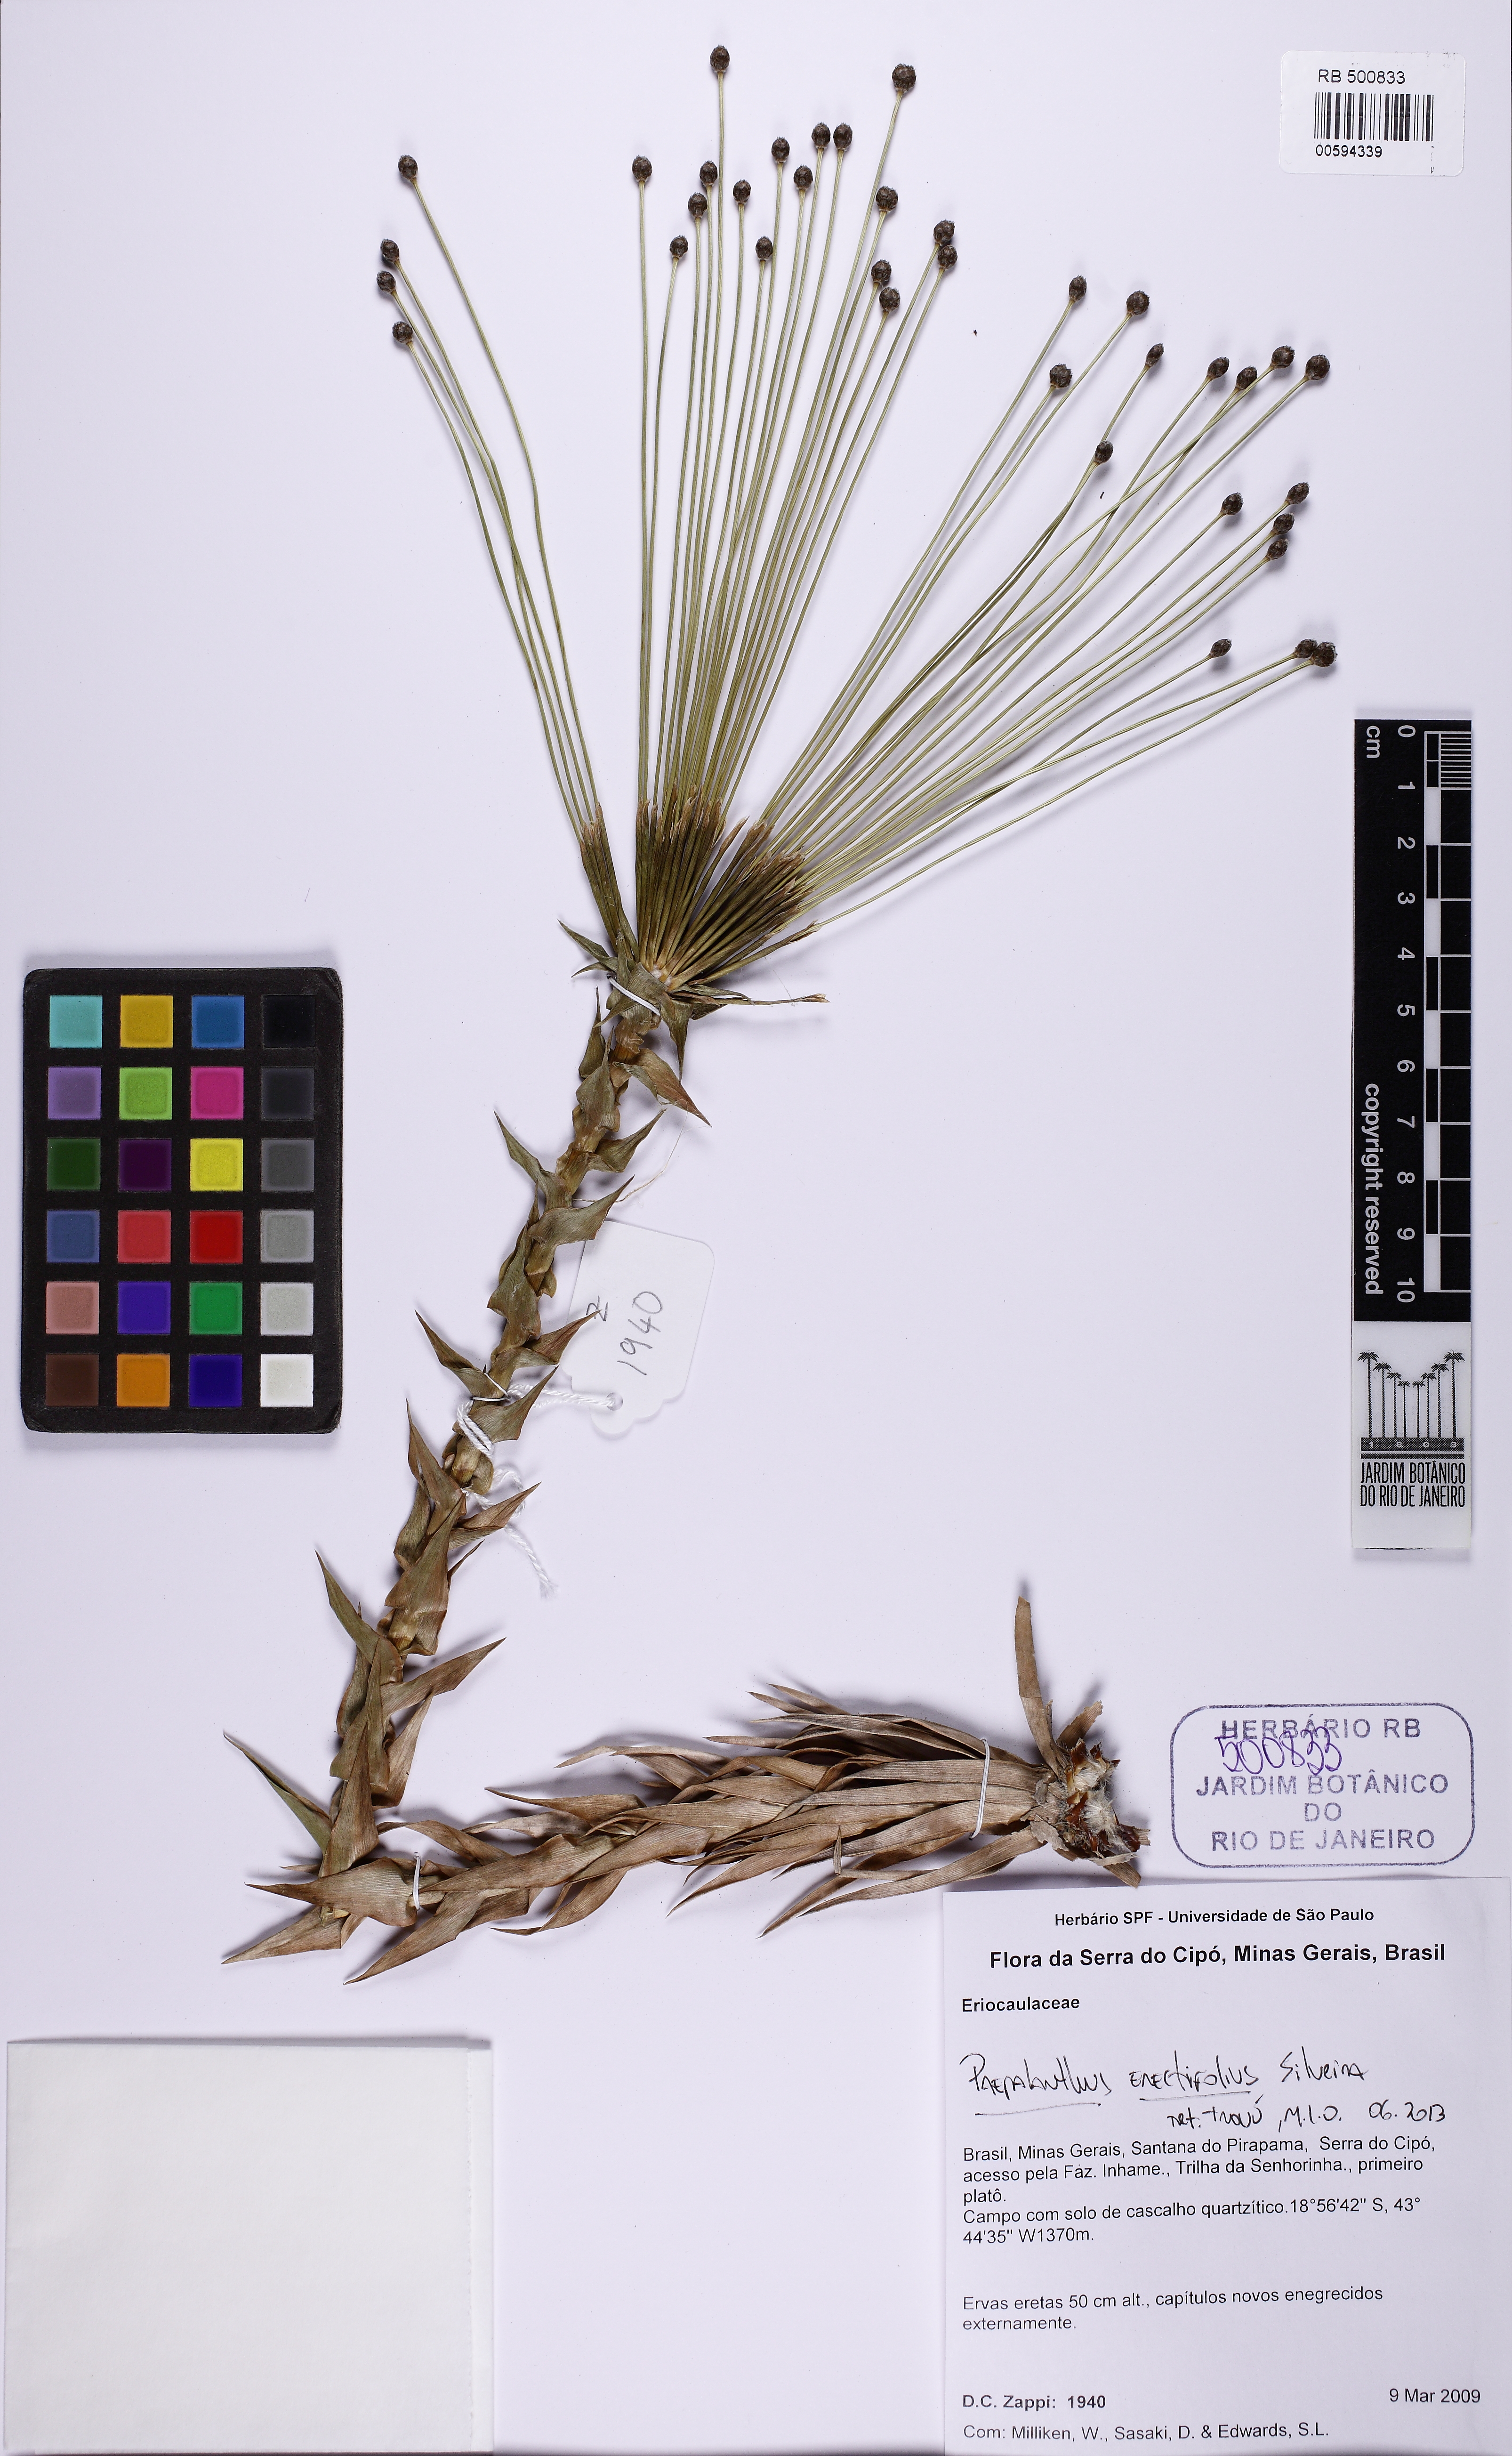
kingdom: Plantae
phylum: Tracheophyta
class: Liliopsida
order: Poales
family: Eriocaulaceae
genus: Paepalanthus
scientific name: Paepalanthus erectifolius
